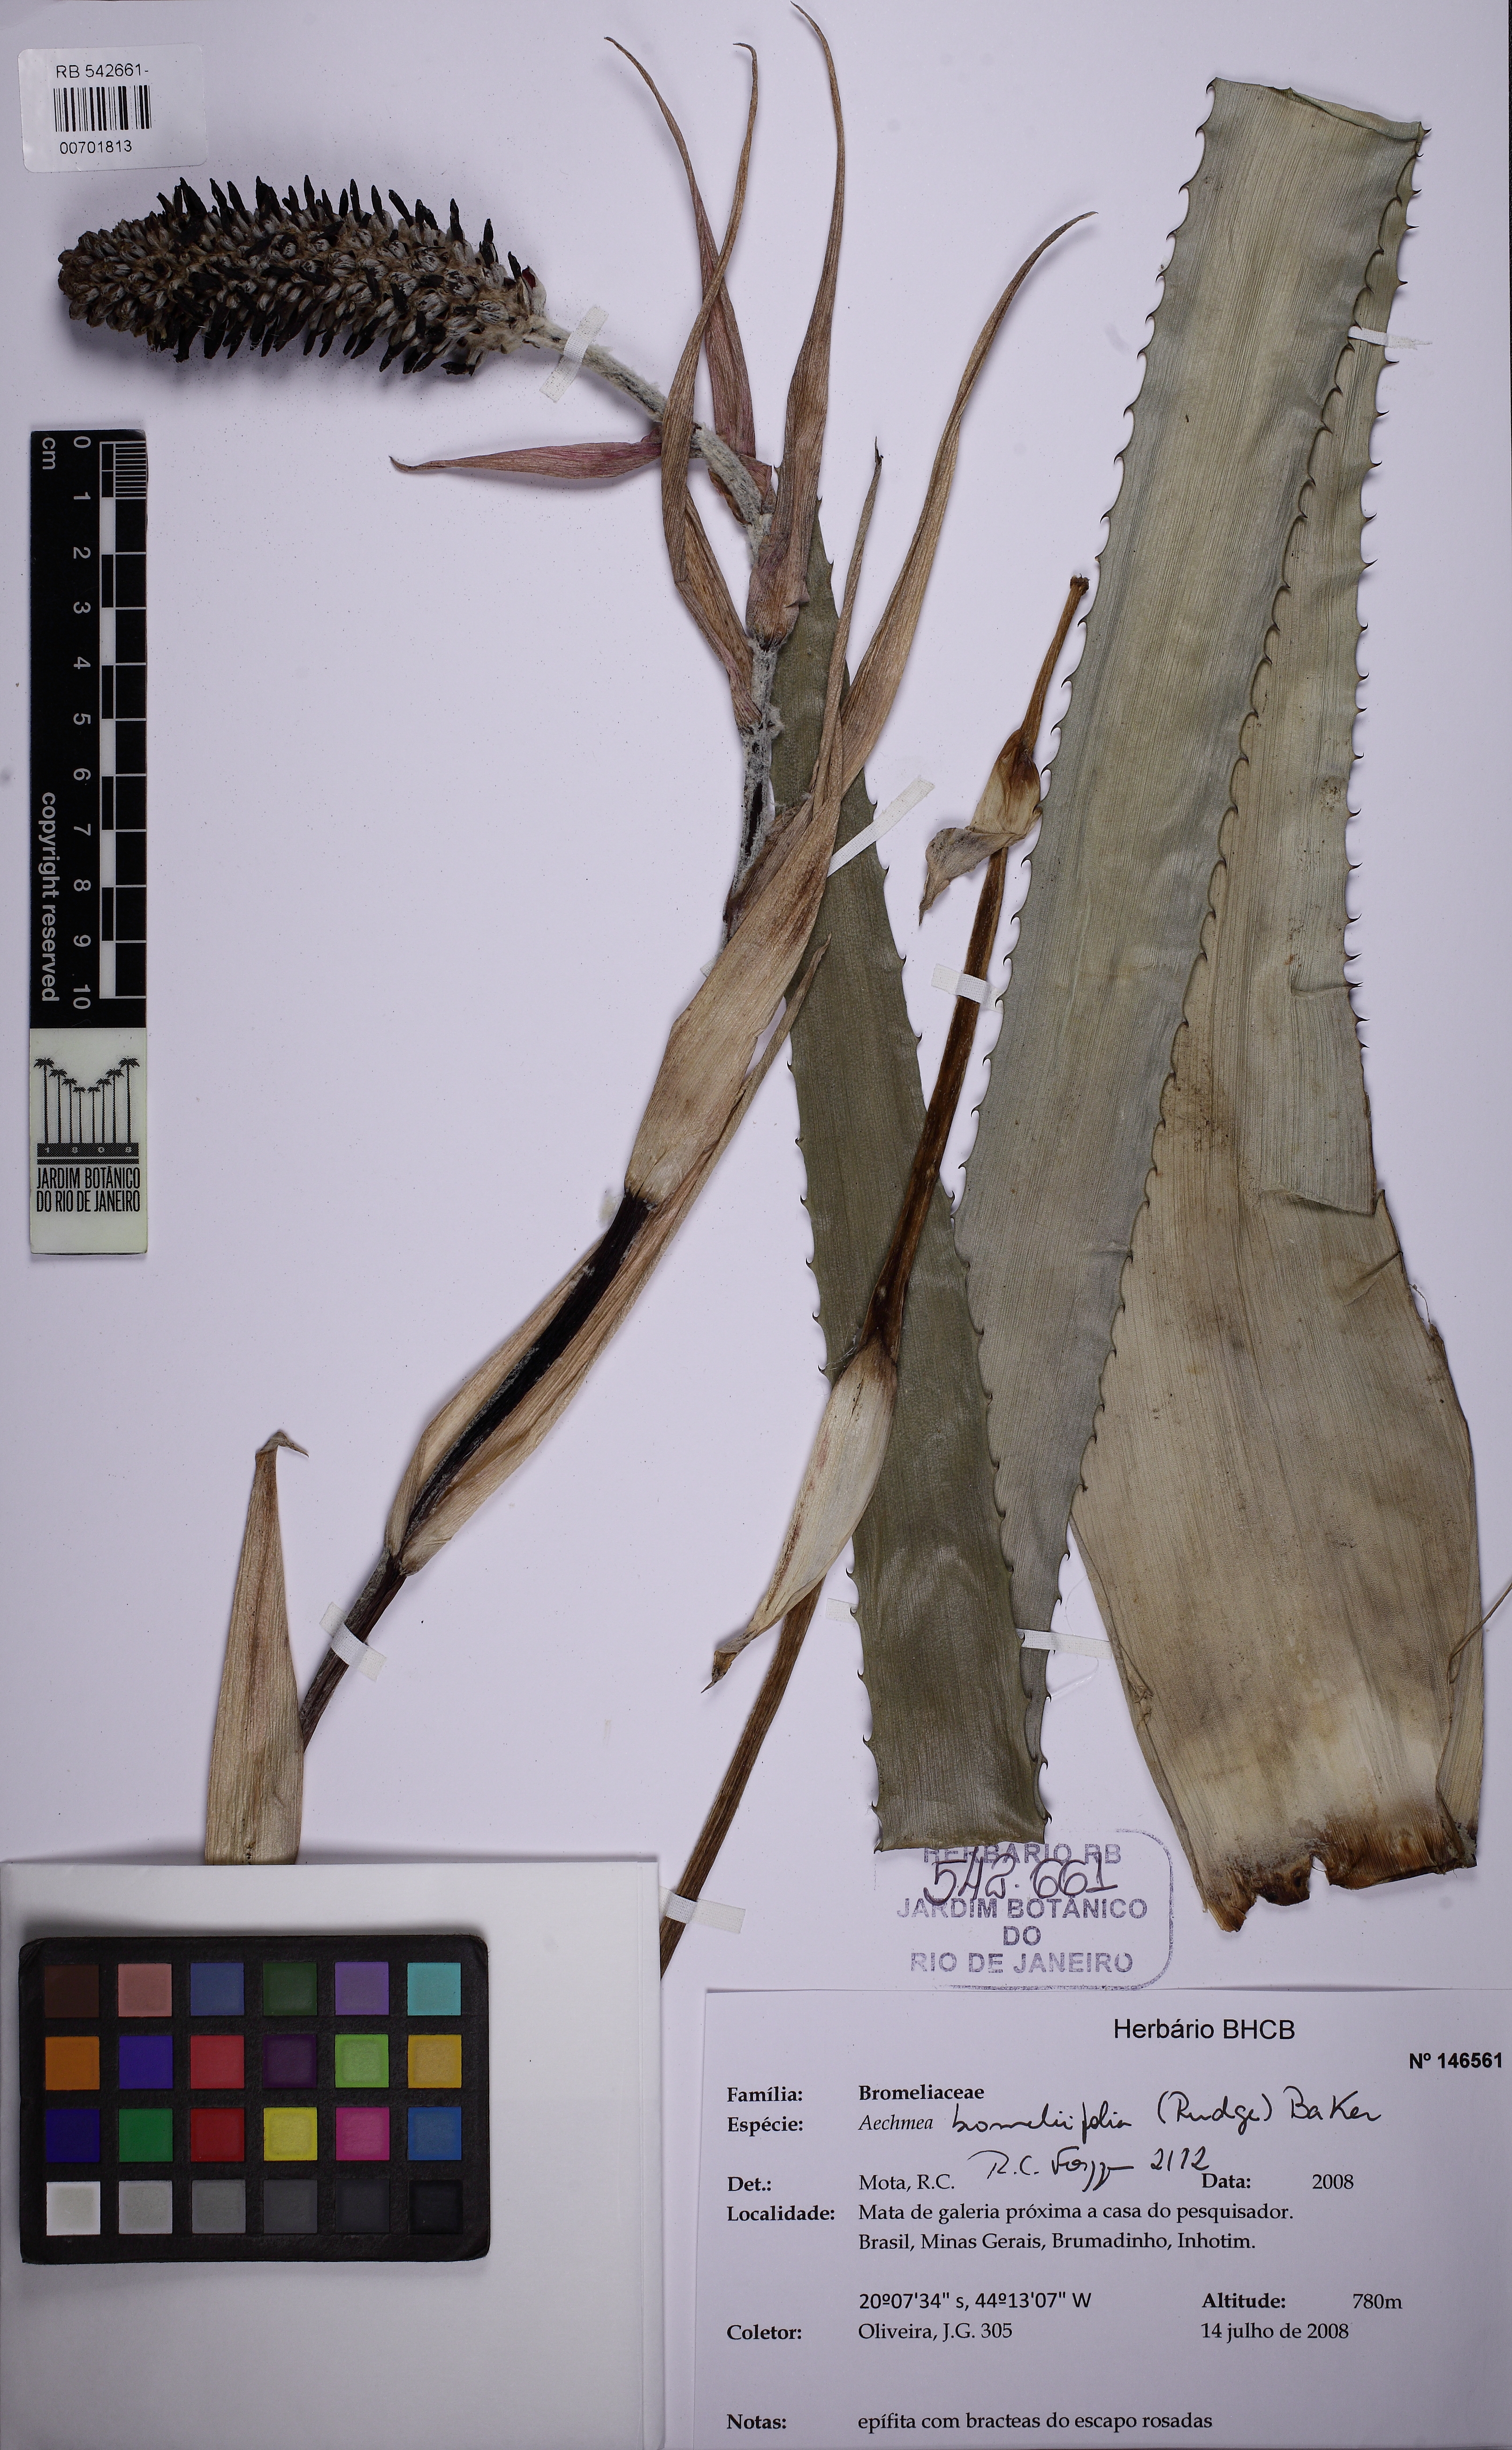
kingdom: Plantae
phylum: Tracheophyta
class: Liliopsida
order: Poales
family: Bromeliaceae
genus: Aechmea
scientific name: Aechmea bromeliifolia
